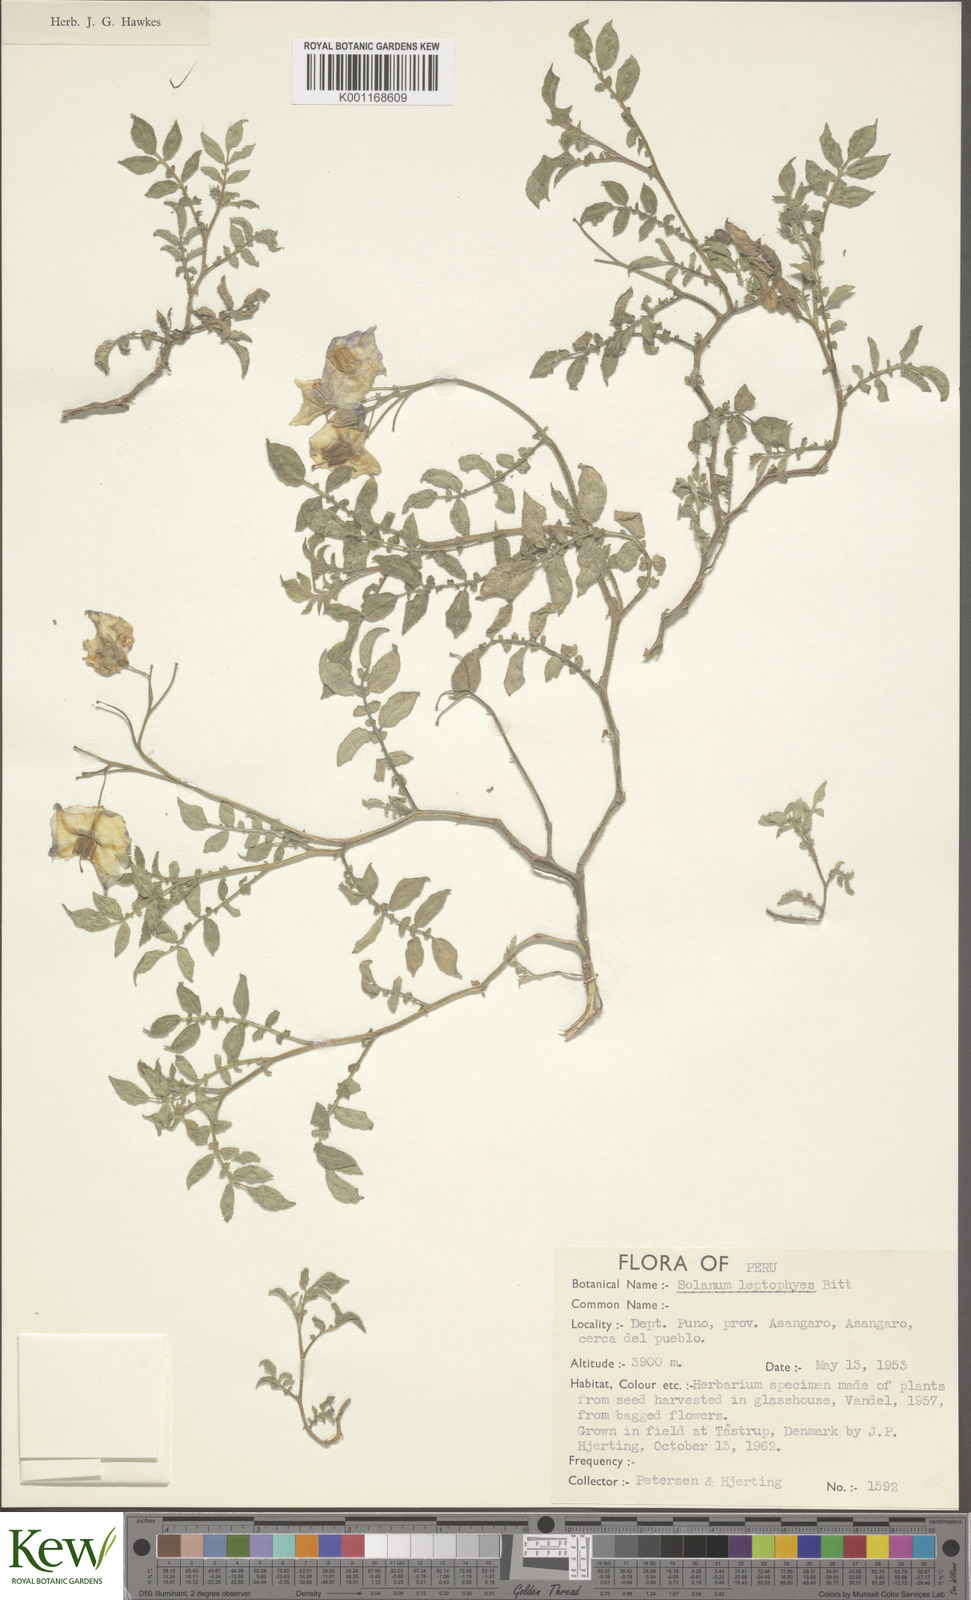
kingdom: Plantae
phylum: Tracheophyta
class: Magnoliopsida
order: Solanales
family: Solanaceae
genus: Solanum
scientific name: Solanum candolleanum
